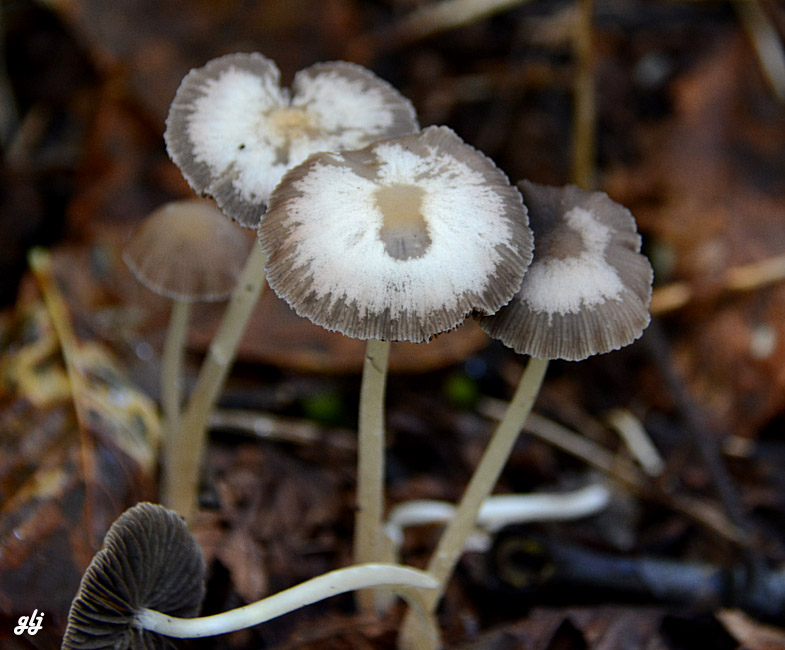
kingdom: Fungi
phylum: Basidiomycota
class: Agaricomycetes
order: Agaricales
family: Psathyrellaceae
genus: Psathyrella
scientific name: Psathyrella
